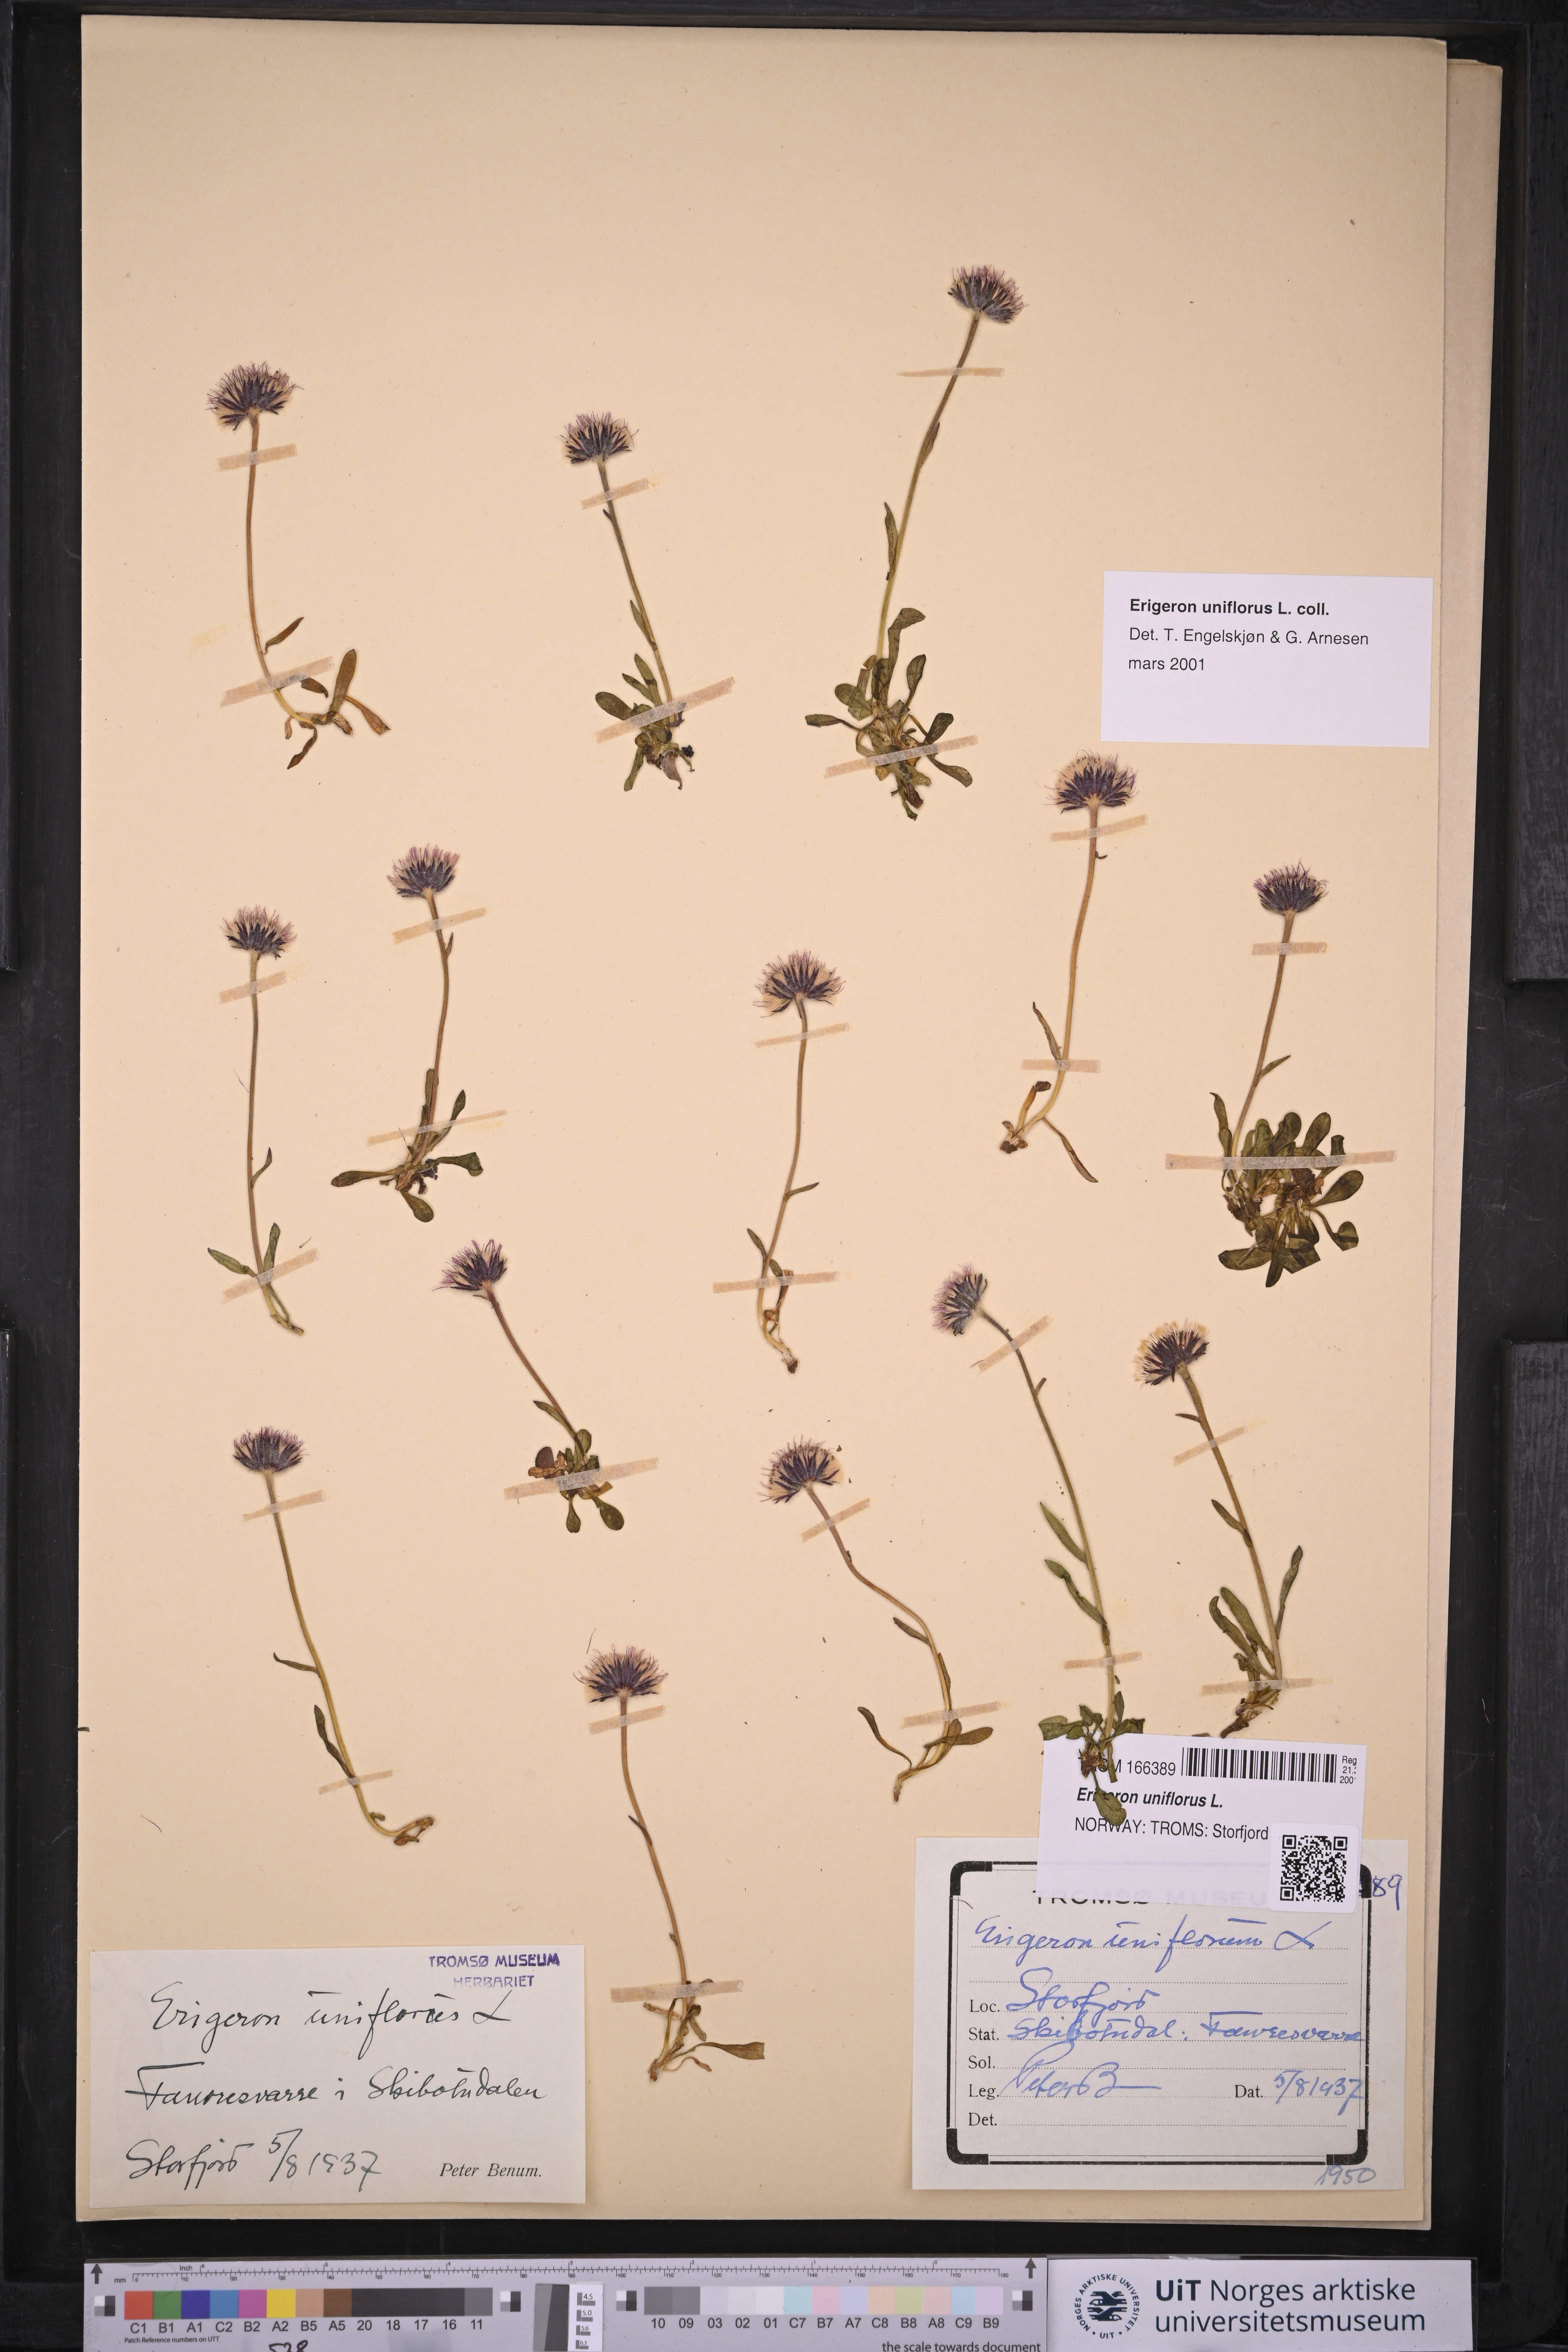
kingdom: Plantae
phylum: Tracheophyta
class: Magnoliopsida
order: Asterales
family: Asteraceae
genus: Erigeron
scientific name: Erigeron uniflorus
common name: Northern daisy
